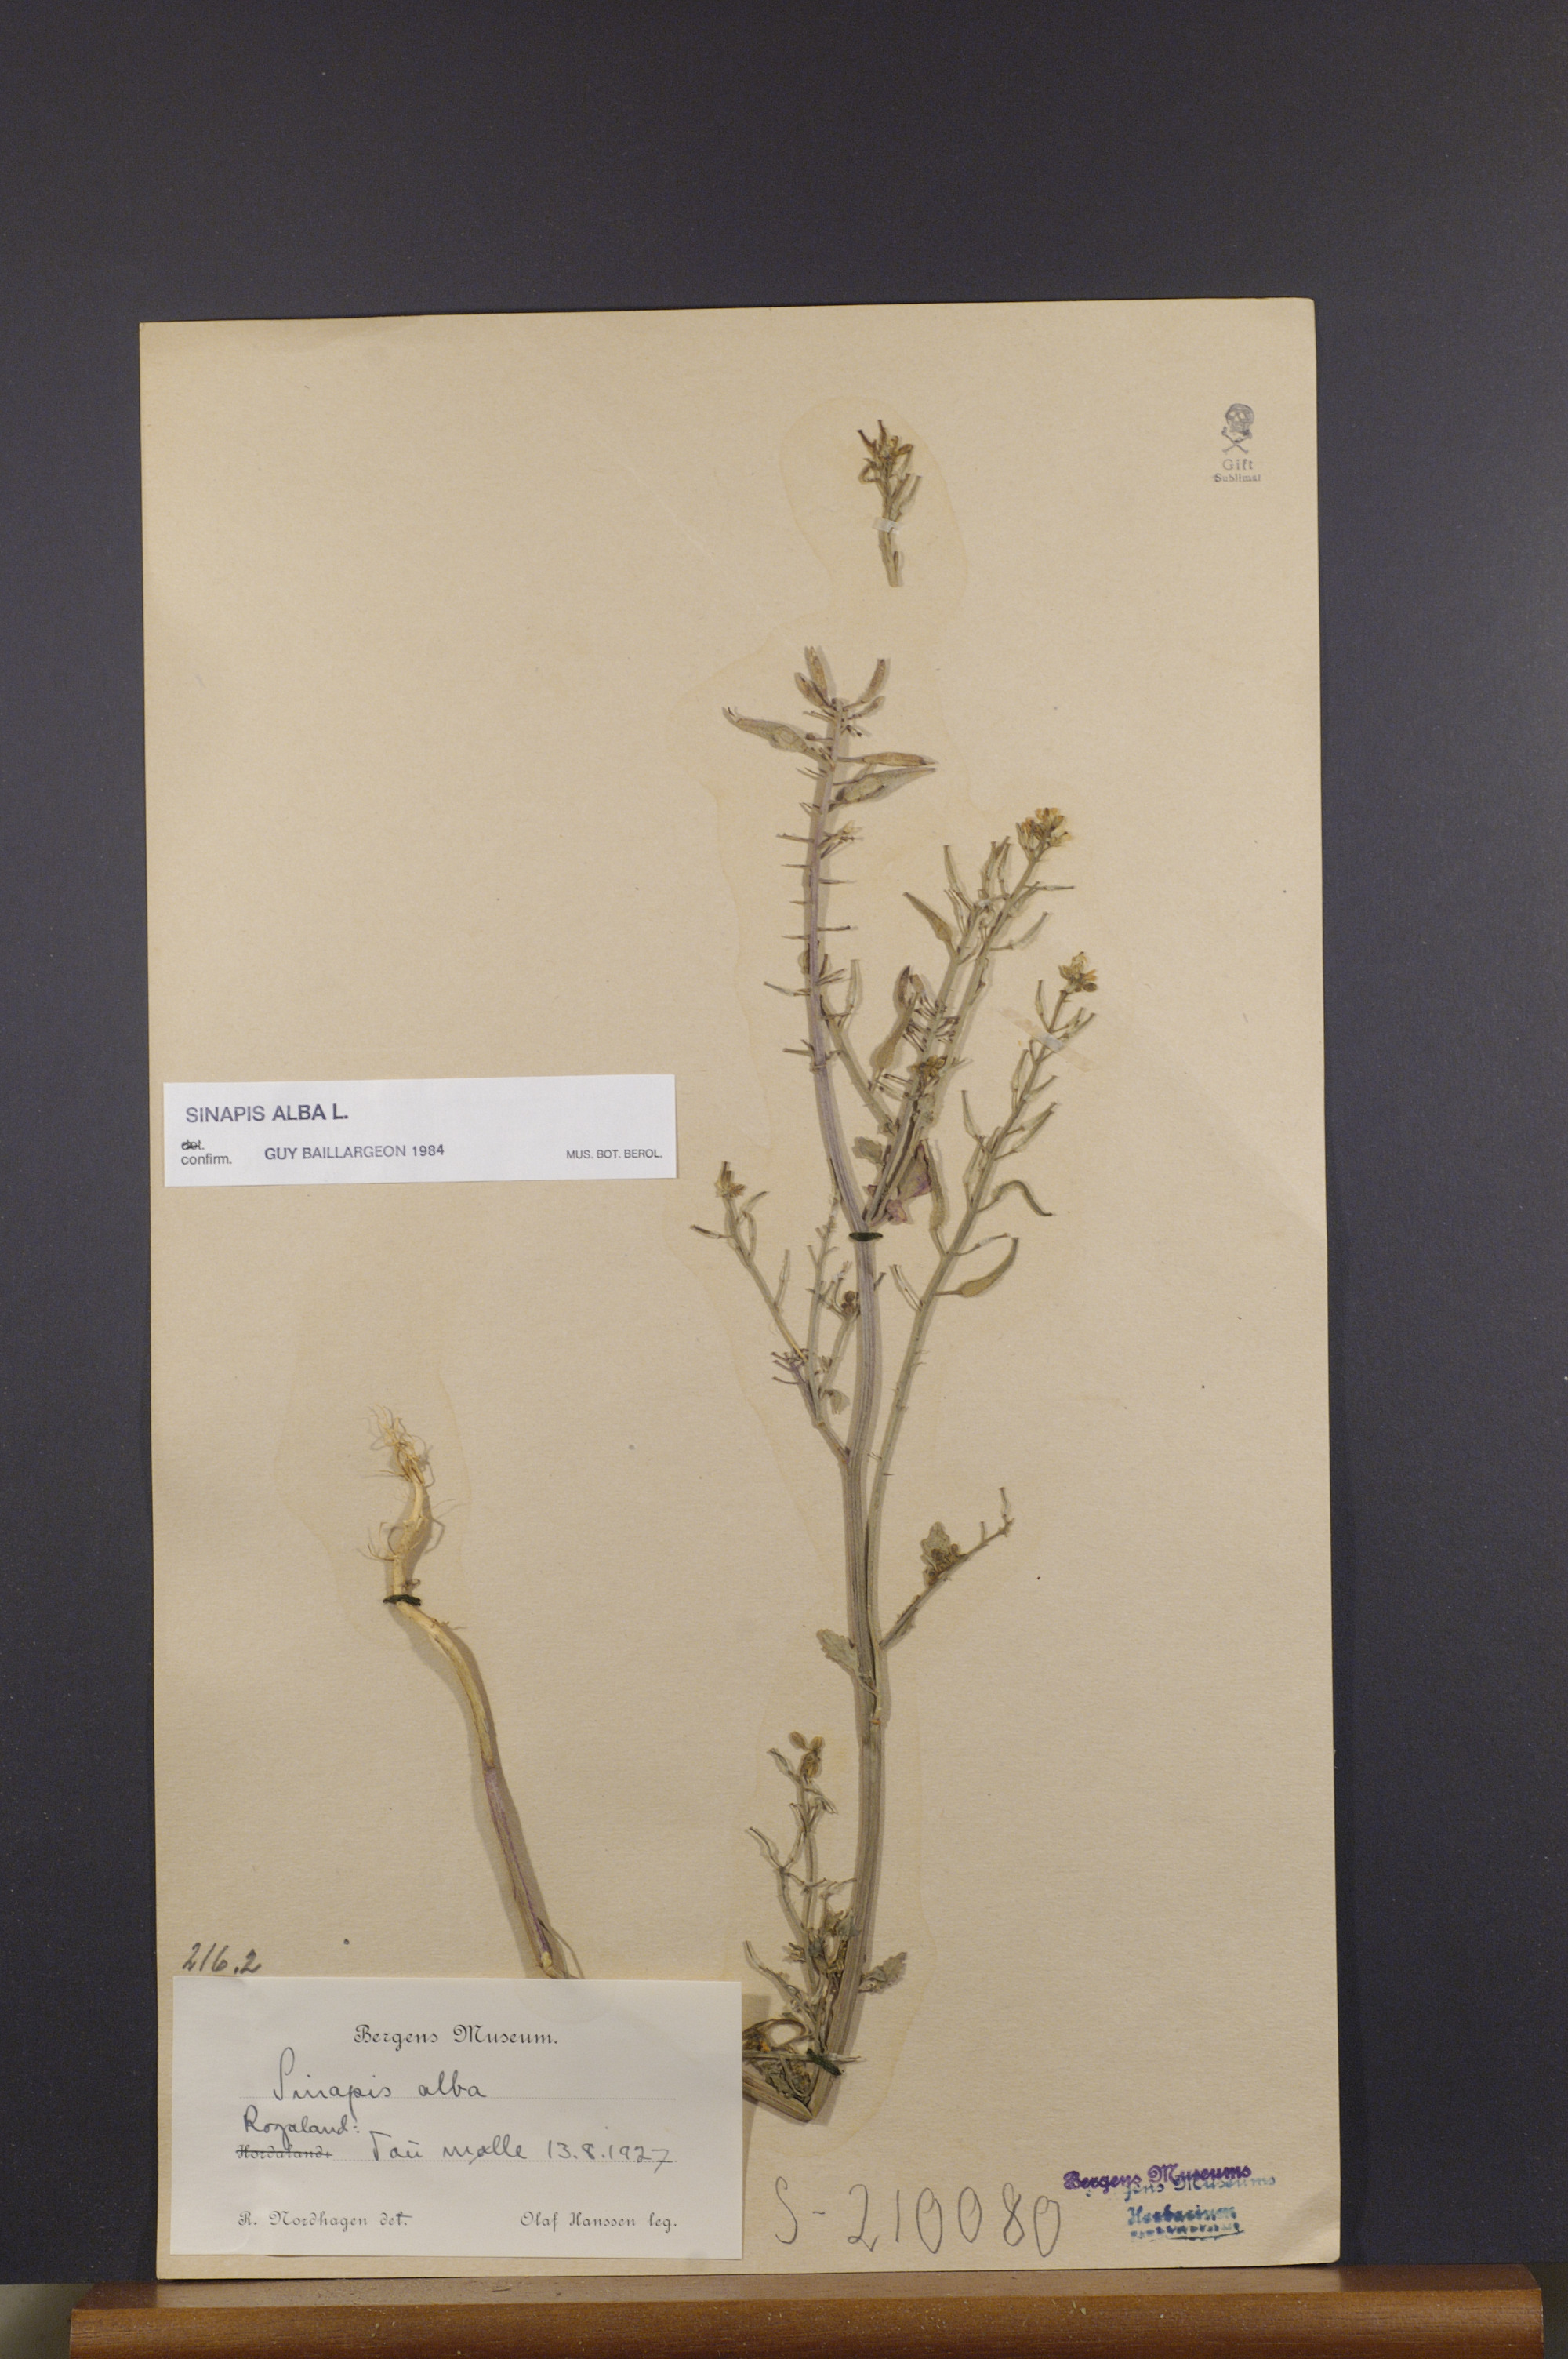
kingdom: Plantae
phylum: Tracheophyta
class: Magnoliopsida
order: Brassicales
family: Brassicaceae
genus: Sinapis
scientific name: Sinapis alba
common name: White mustard
